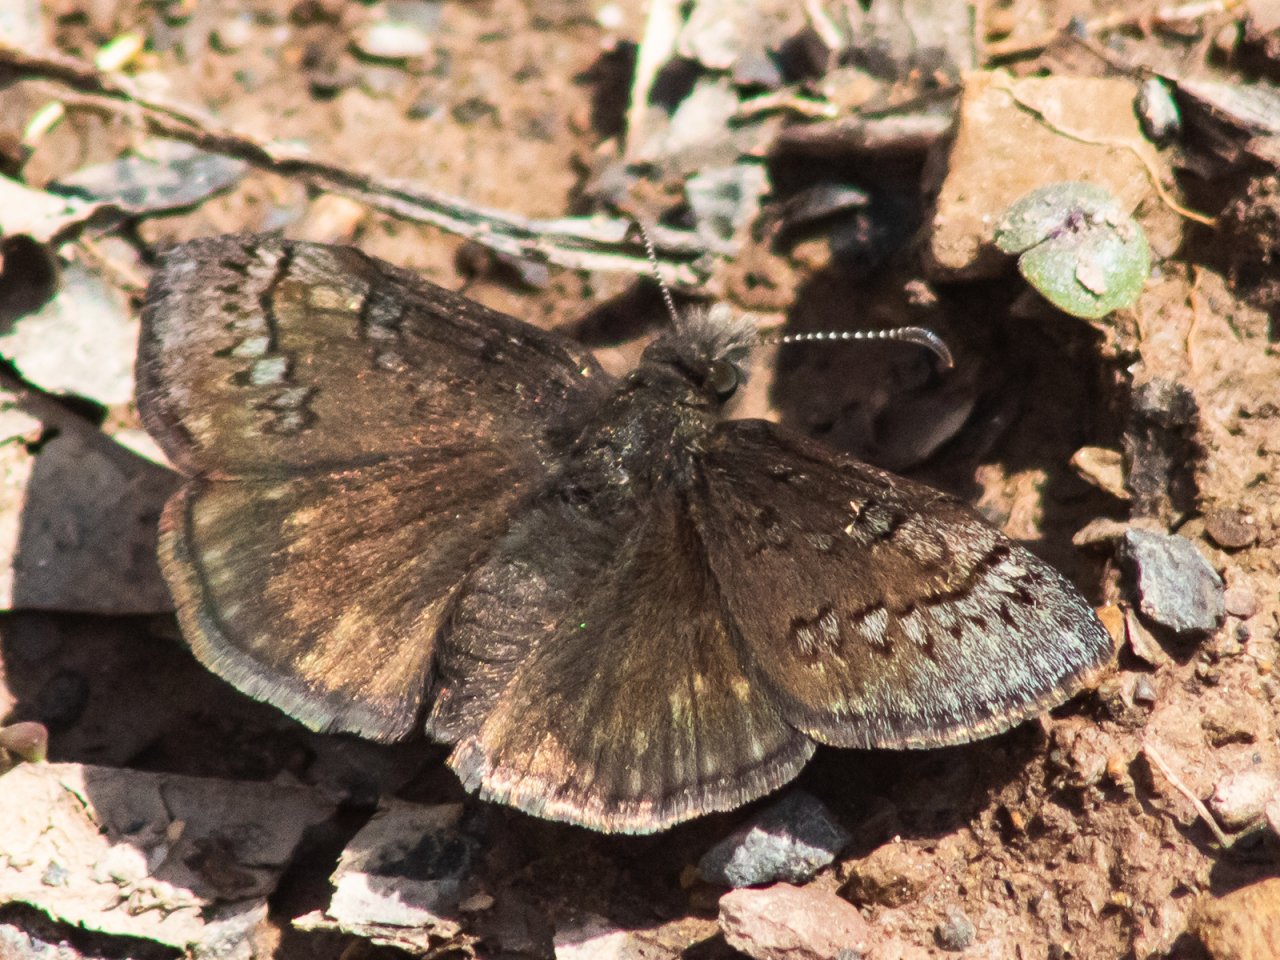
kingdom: Animalia
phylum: Arthropoda
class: Insecta
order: Lepidoptera
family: Hesperiidae
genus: Erynnis
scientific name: Erynnis
